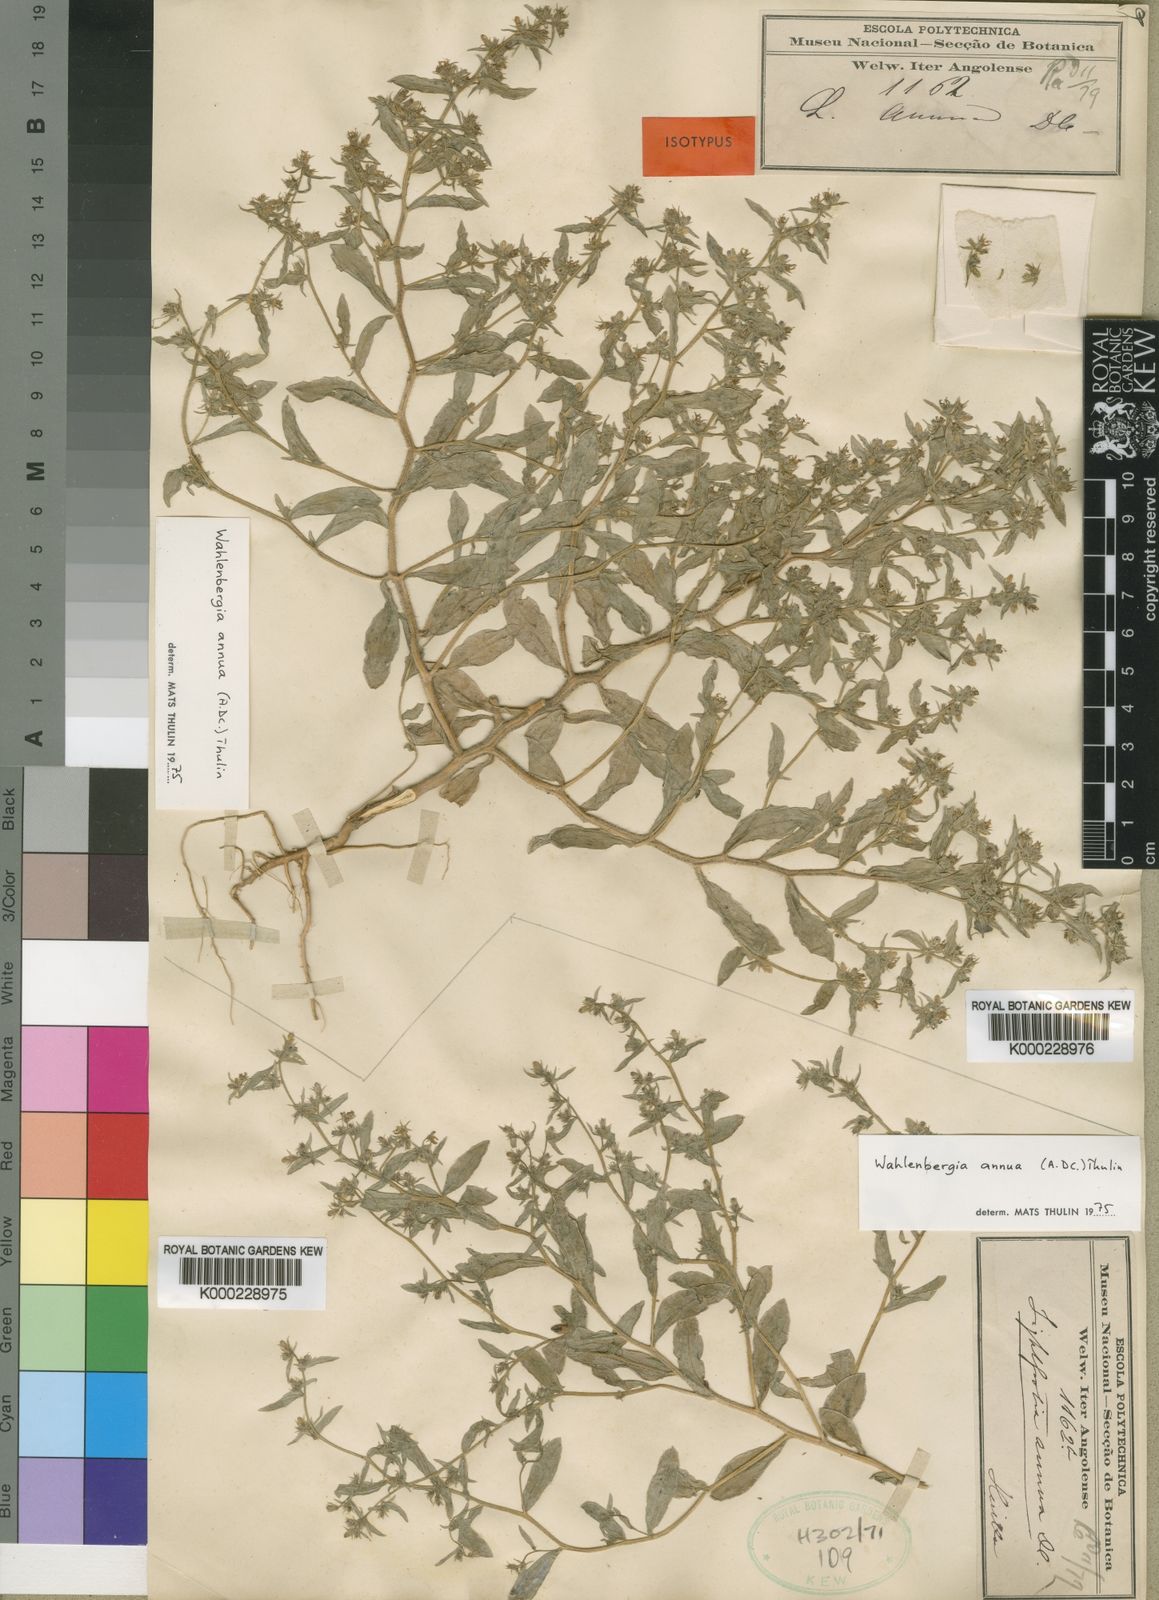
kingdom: Plantae
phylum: Tracheophyta
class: Magnoliopsida
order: Asterales
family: Campanulaceae
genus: Wahlenbergia
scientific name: Wahlenbergia annua
